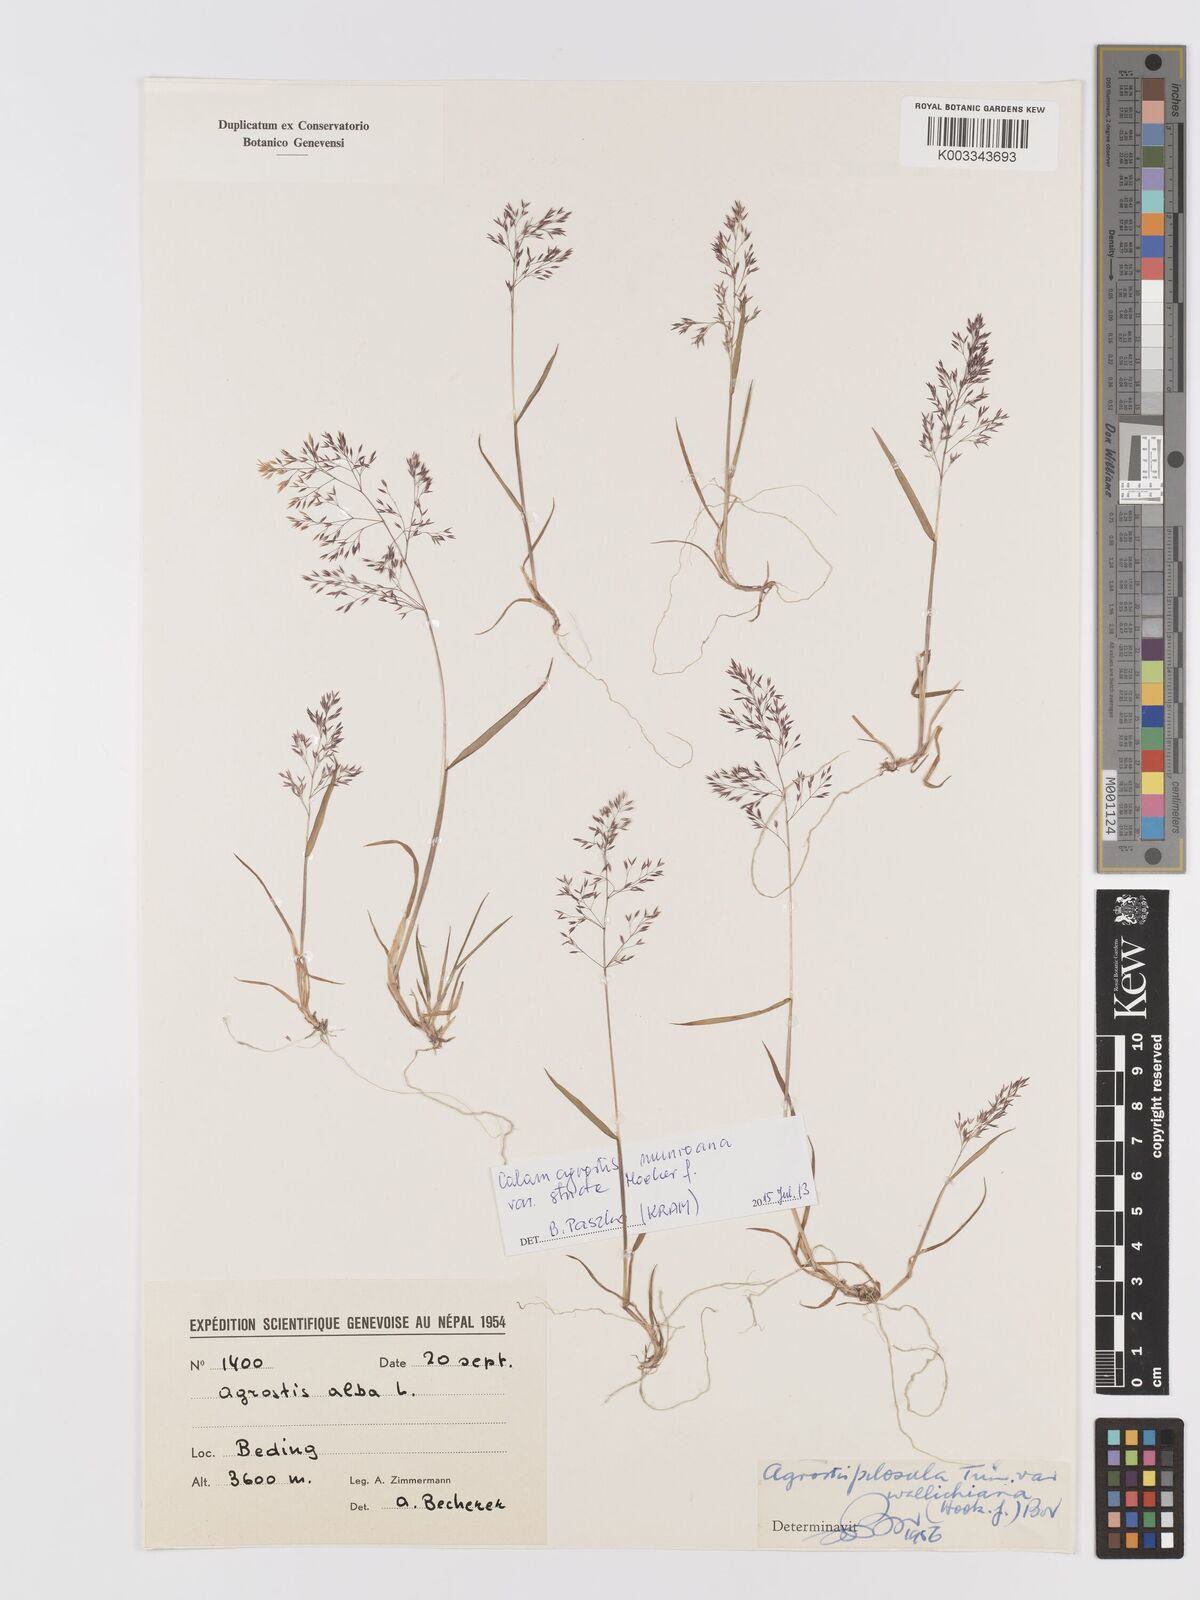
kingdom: Plantae
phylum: Tracheophyta
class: Liliopsida
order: Poales
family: Poaceae
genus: Agrostis
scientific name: Agrostis pilosula
